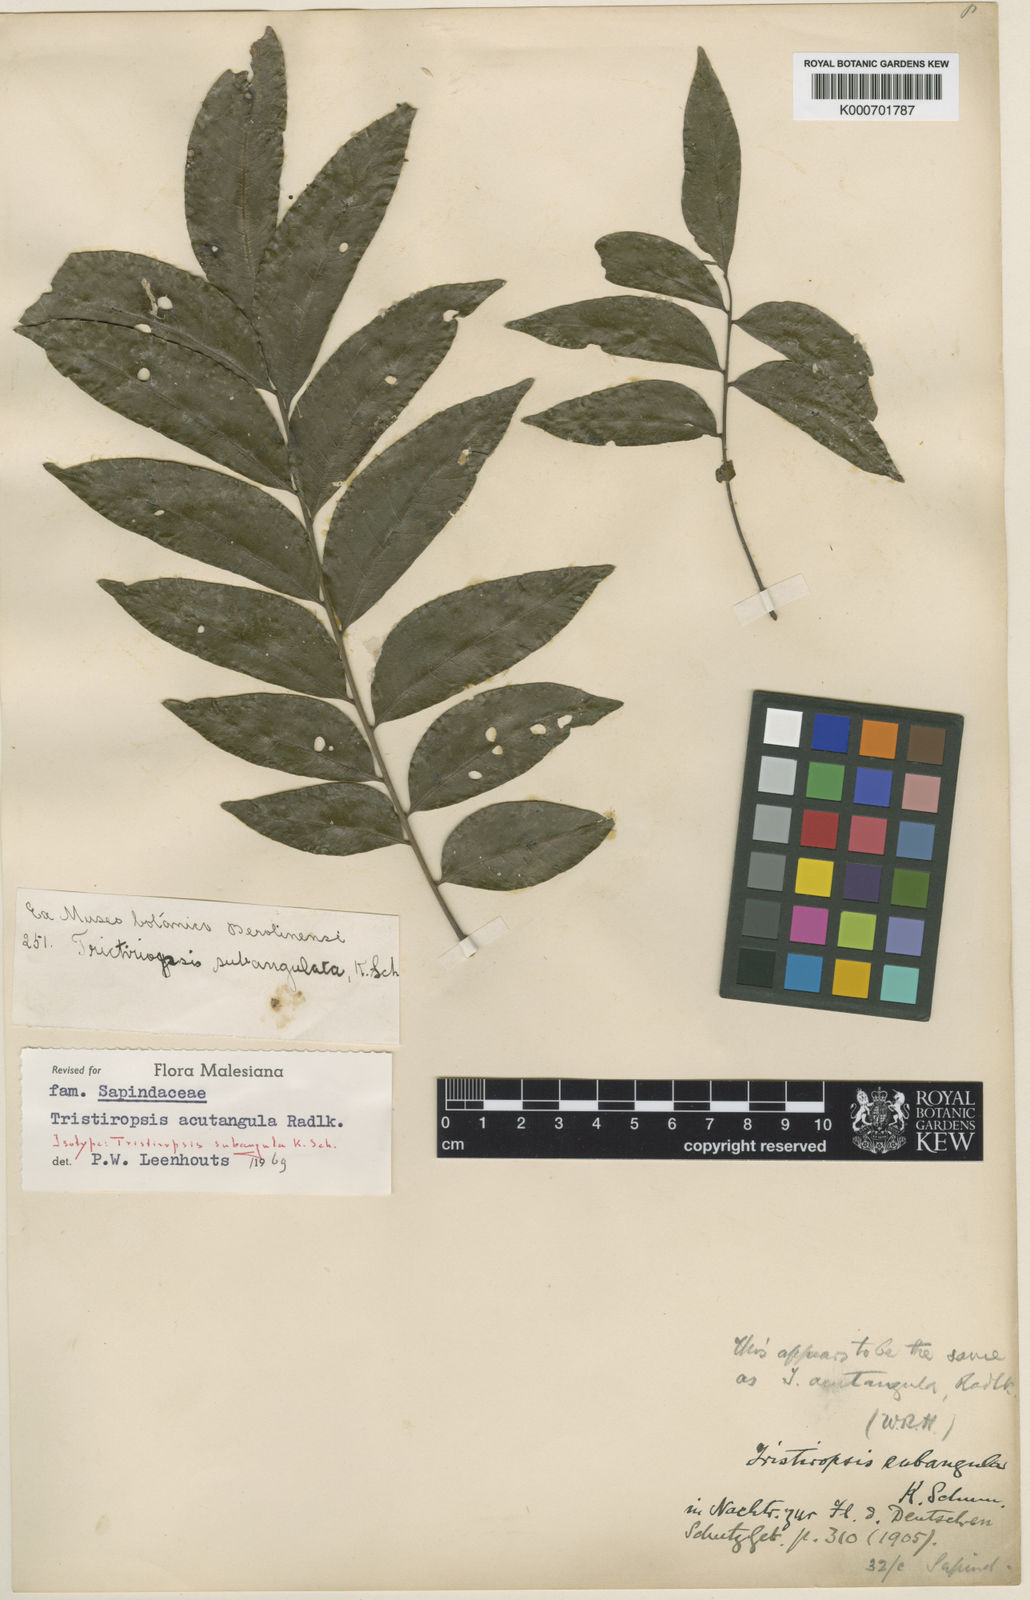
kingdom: Plantae
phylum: Tracheophyta
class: Magnoliopsida
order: Sapindales
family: Sapindaceae
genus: Tristiropsis
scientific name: Tristiropsis acutangula
